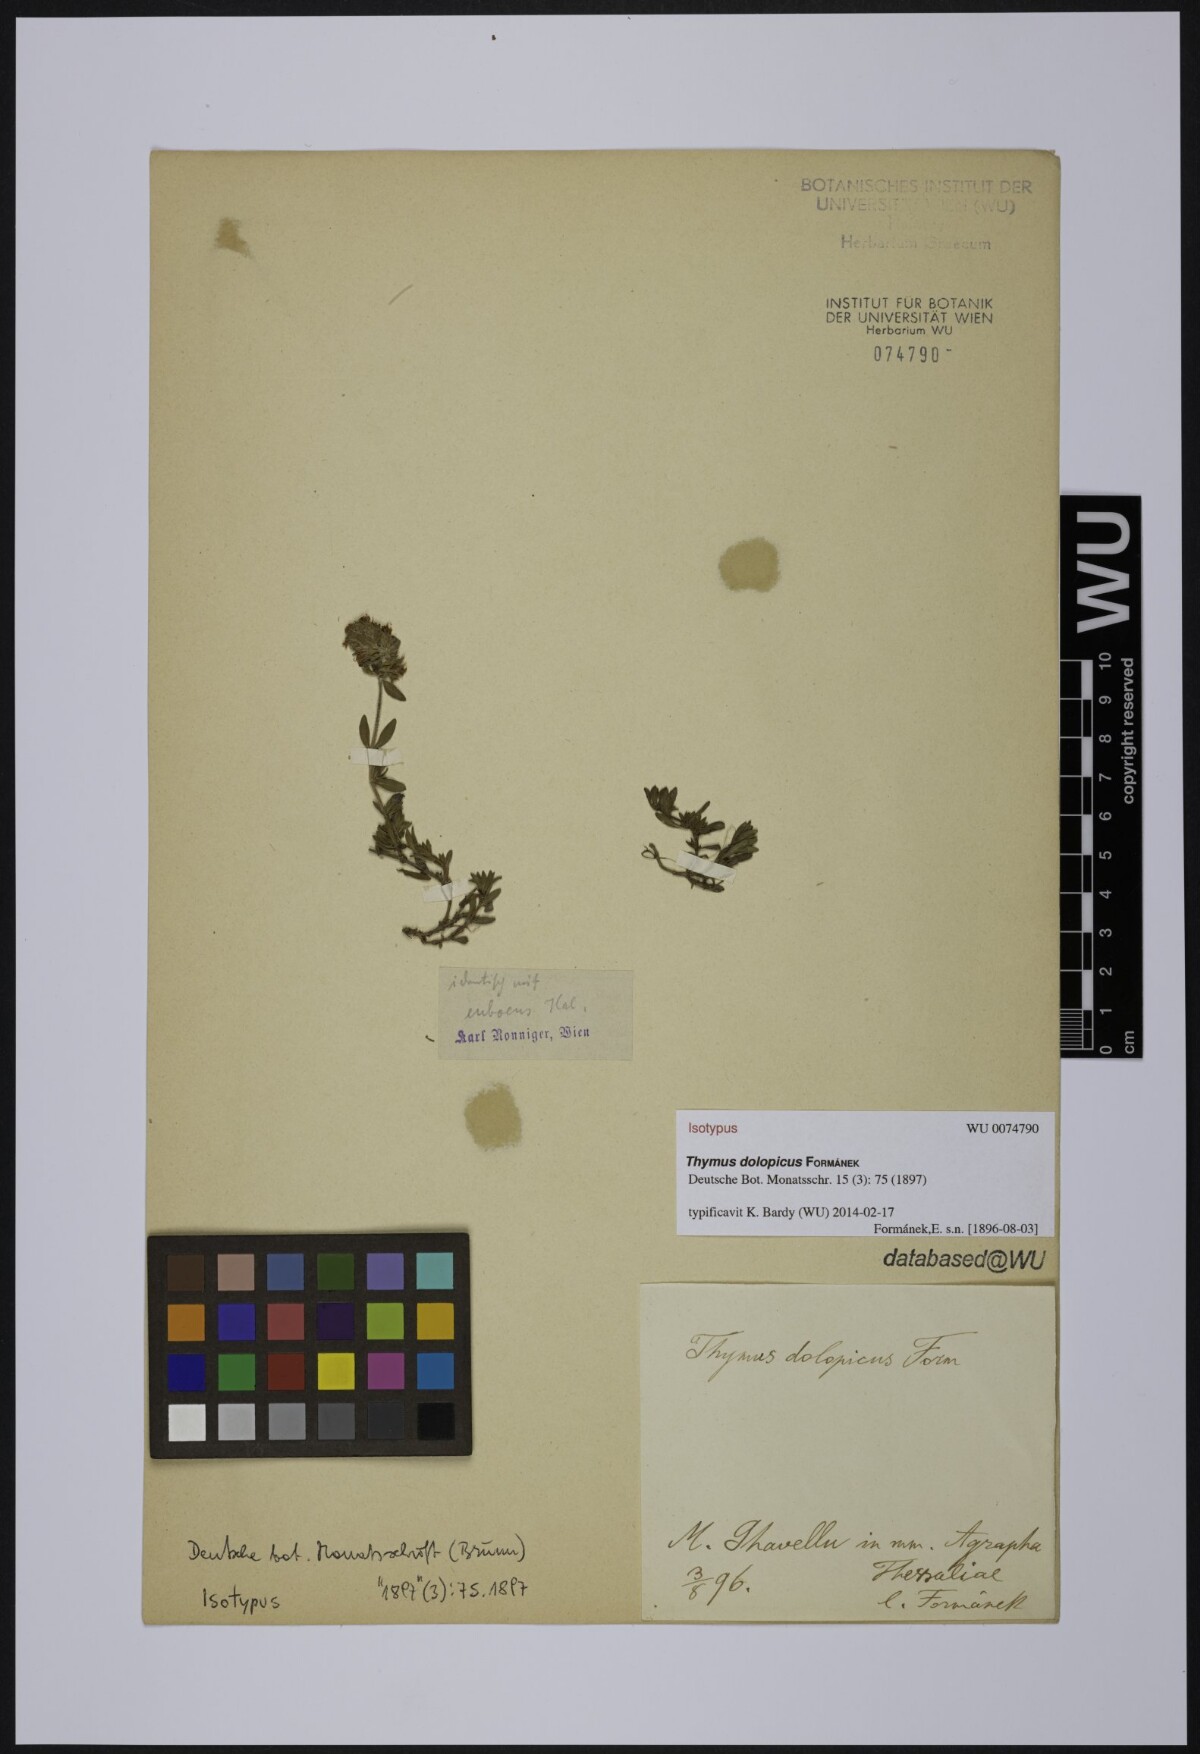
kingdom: Plantae
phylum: Tracheophyta
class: Magnoliopsida
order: Lamiales
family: Lamiaceae
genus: Thymus
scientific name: Thymus dolopicus
